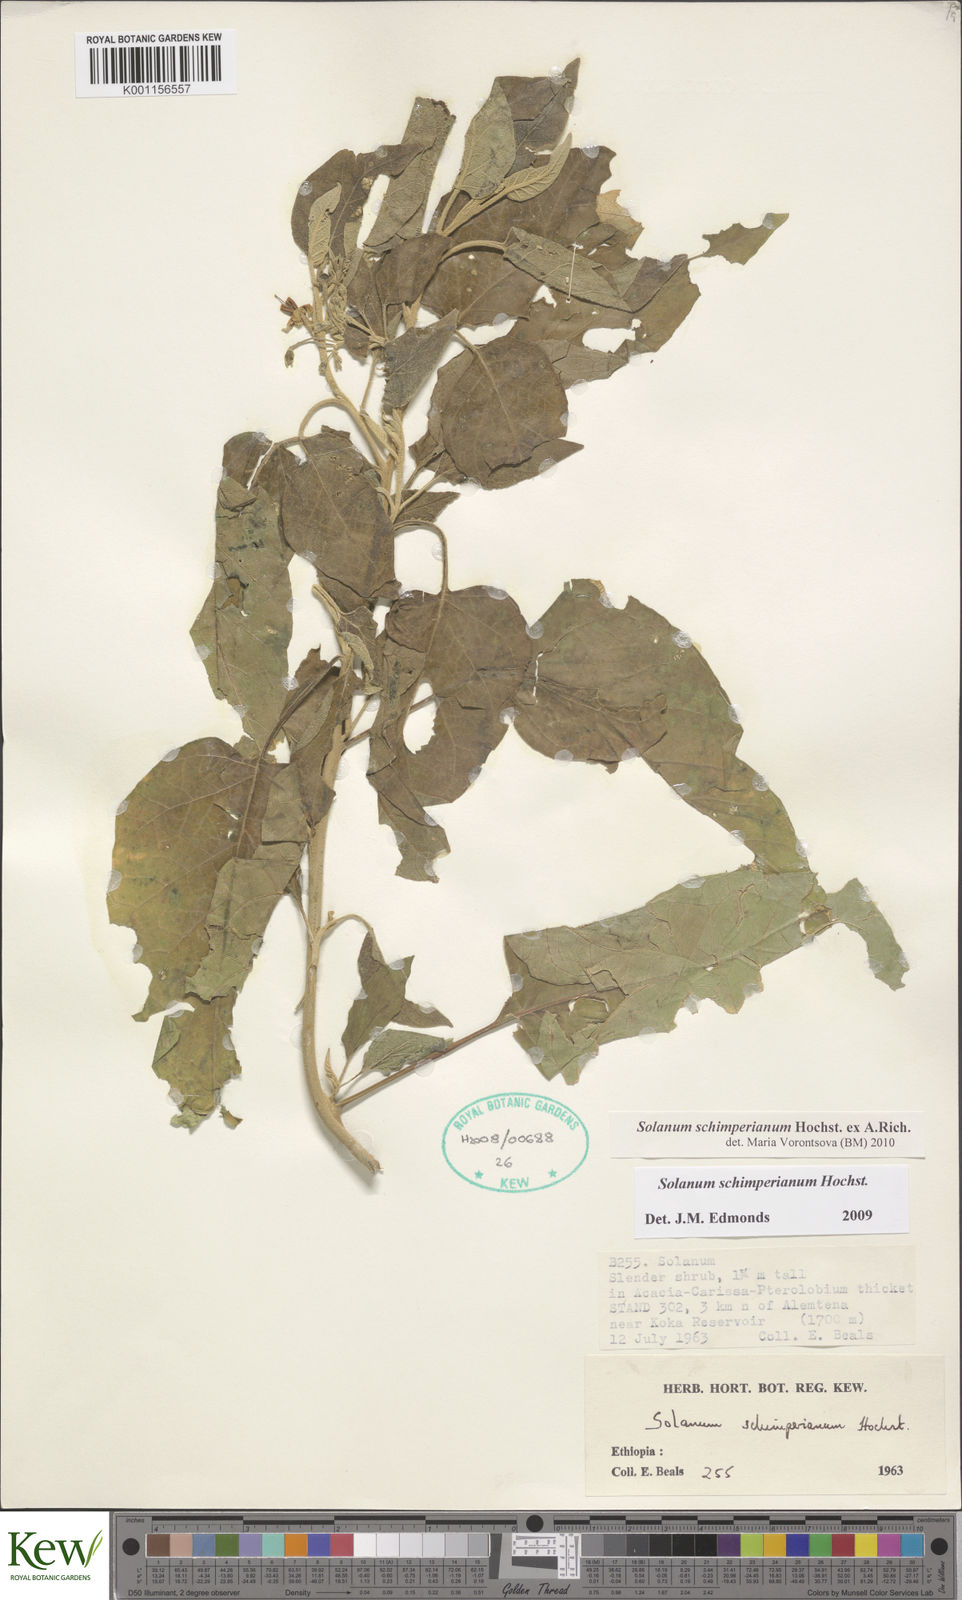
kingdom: Plantae
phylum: Tracheophyta
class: Magnoliopsida
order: Solanales
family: Solanaceae
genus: Solanum
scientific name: Solanum
